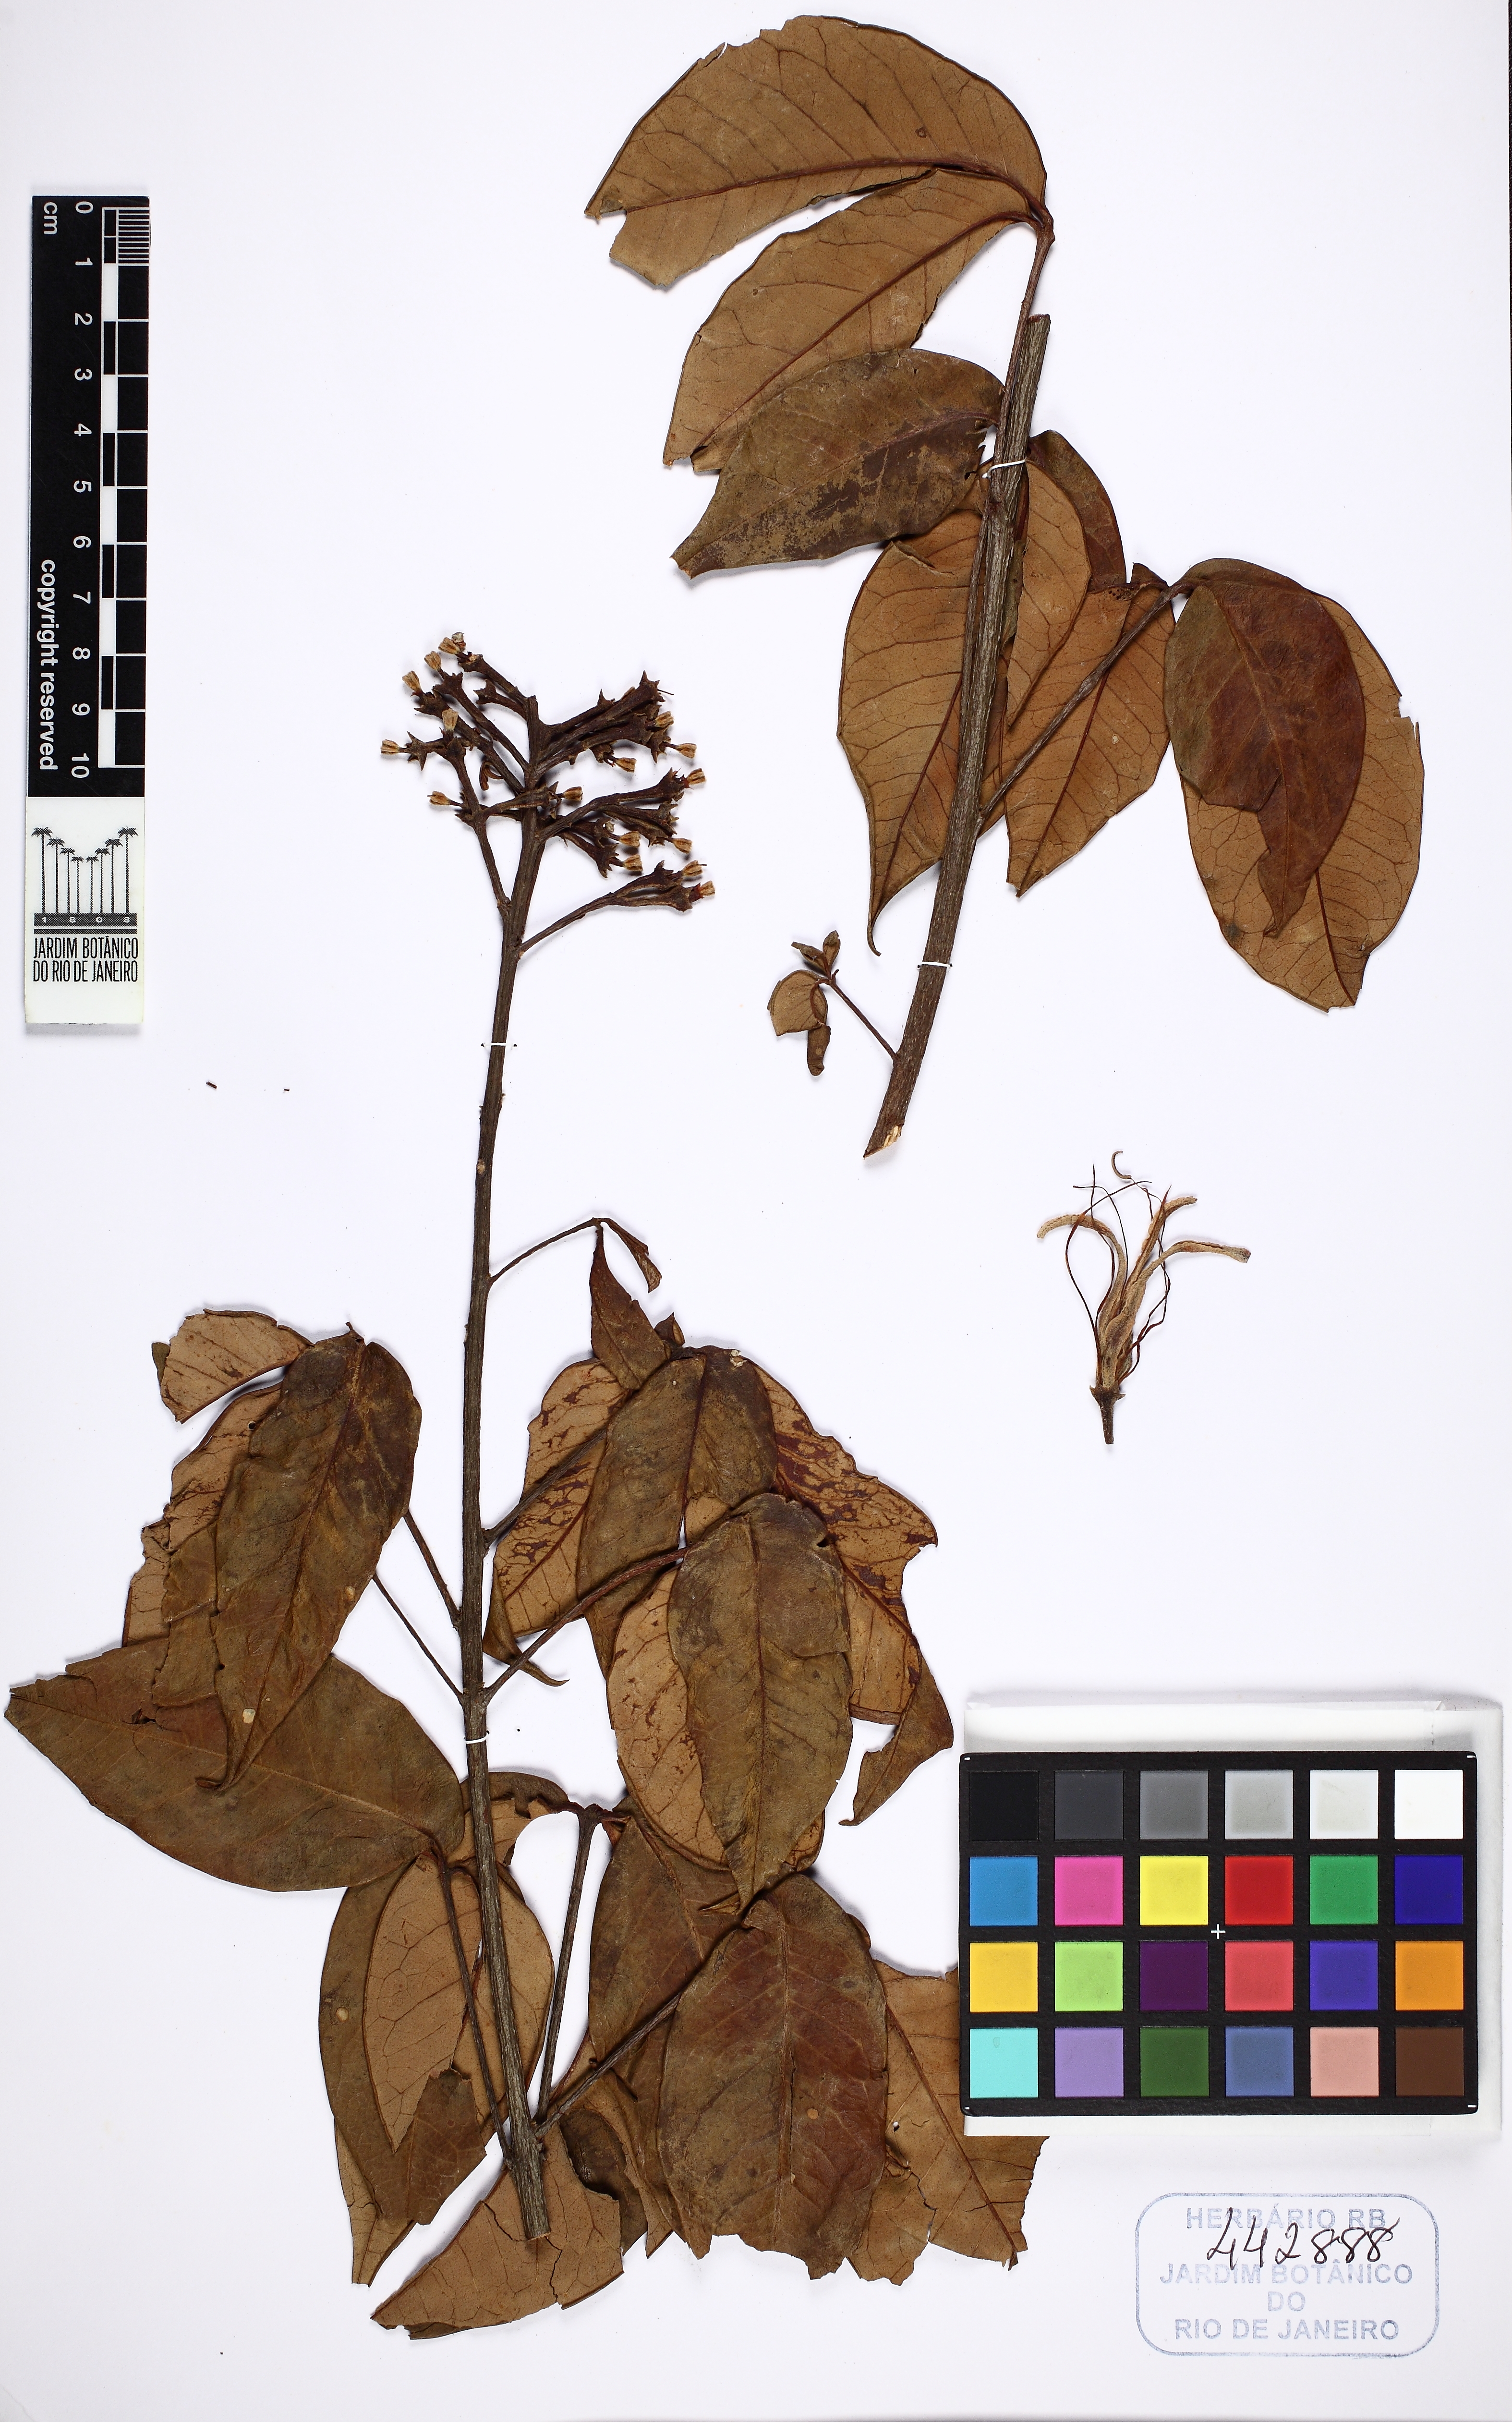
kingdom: Plantae
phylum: Tracheophyta
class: Magnoliopsida
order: Sapindales
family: Rutaceae
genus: Spiranthera
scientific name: Spiranthera odoratissima
